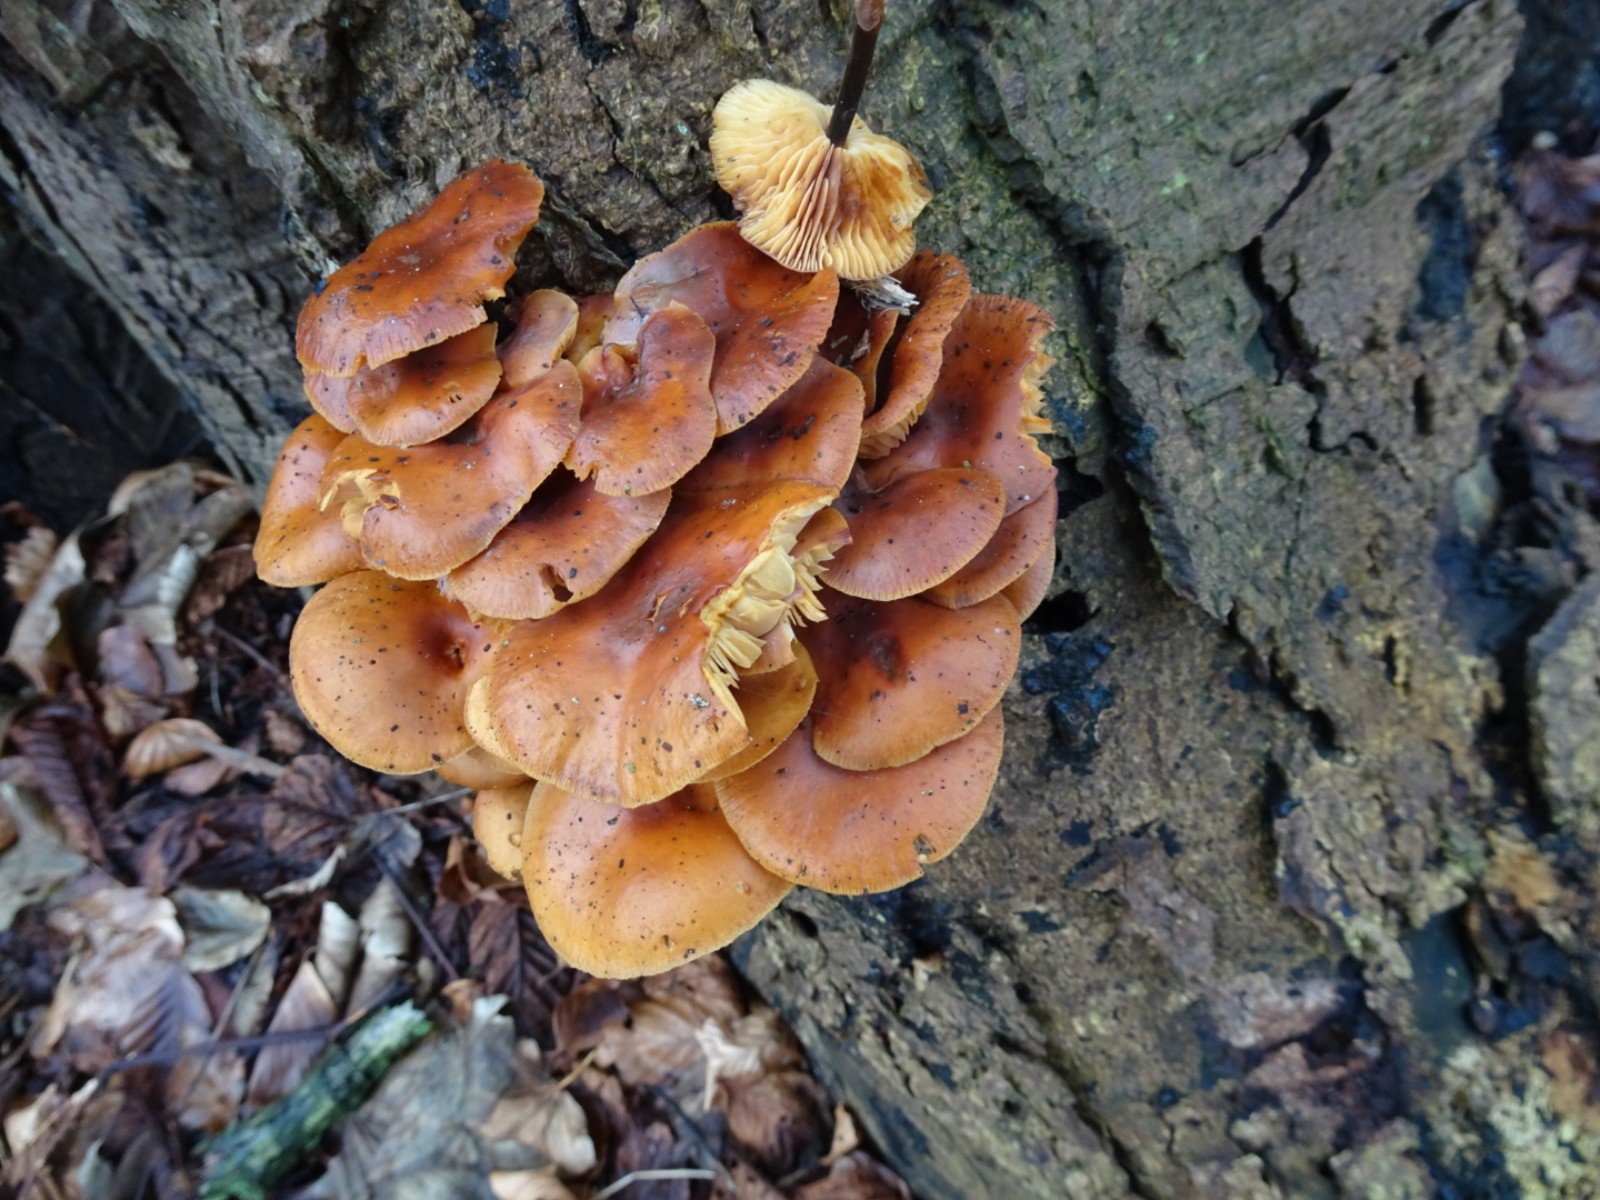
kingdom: Fungi
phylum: Basidiomycota
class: Agaricomycetes
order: Agaricales
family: Physalacriaceae
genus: Flammulina
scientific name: Flammulina velutipes
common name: gul fløjlsfod
